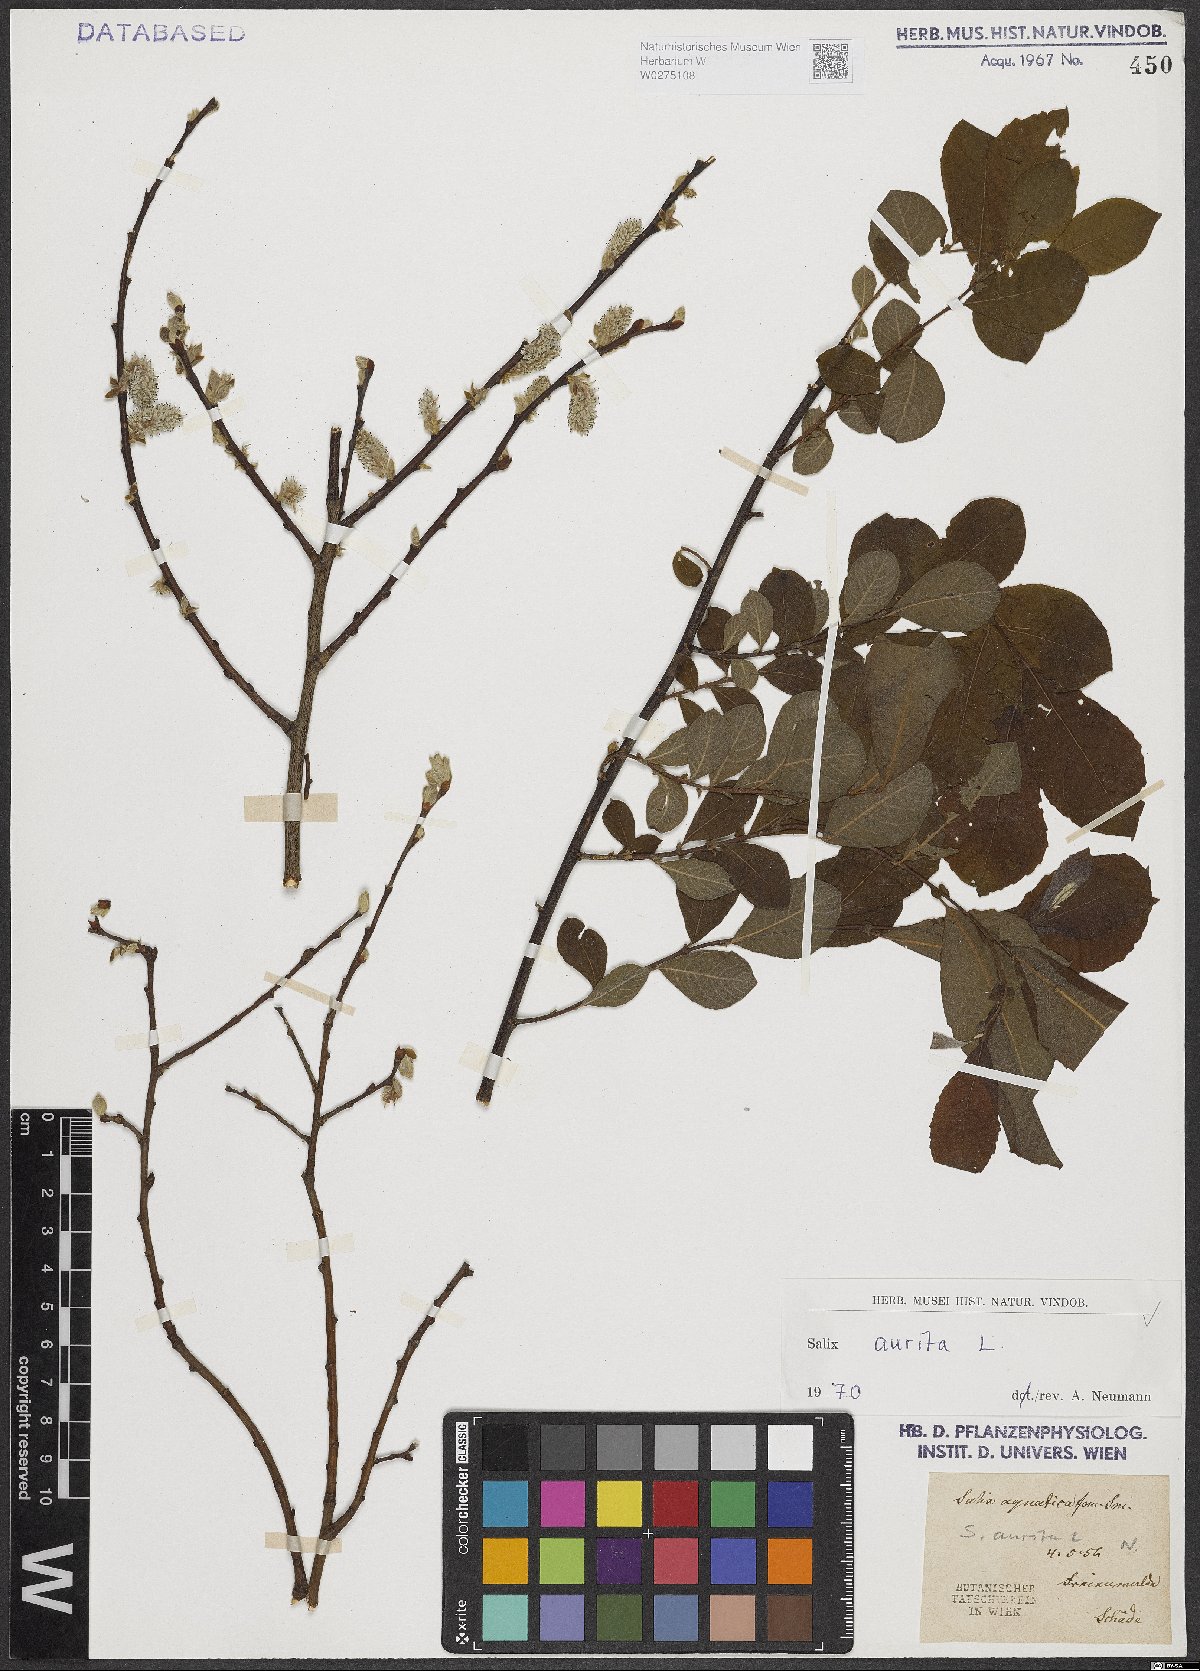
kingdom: Plantae
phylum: Tracheophyta
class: Magnoliopsida
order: Malpighiales
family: Salicaceae
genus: Salix
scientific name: Salix aurita
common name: Eared willow
